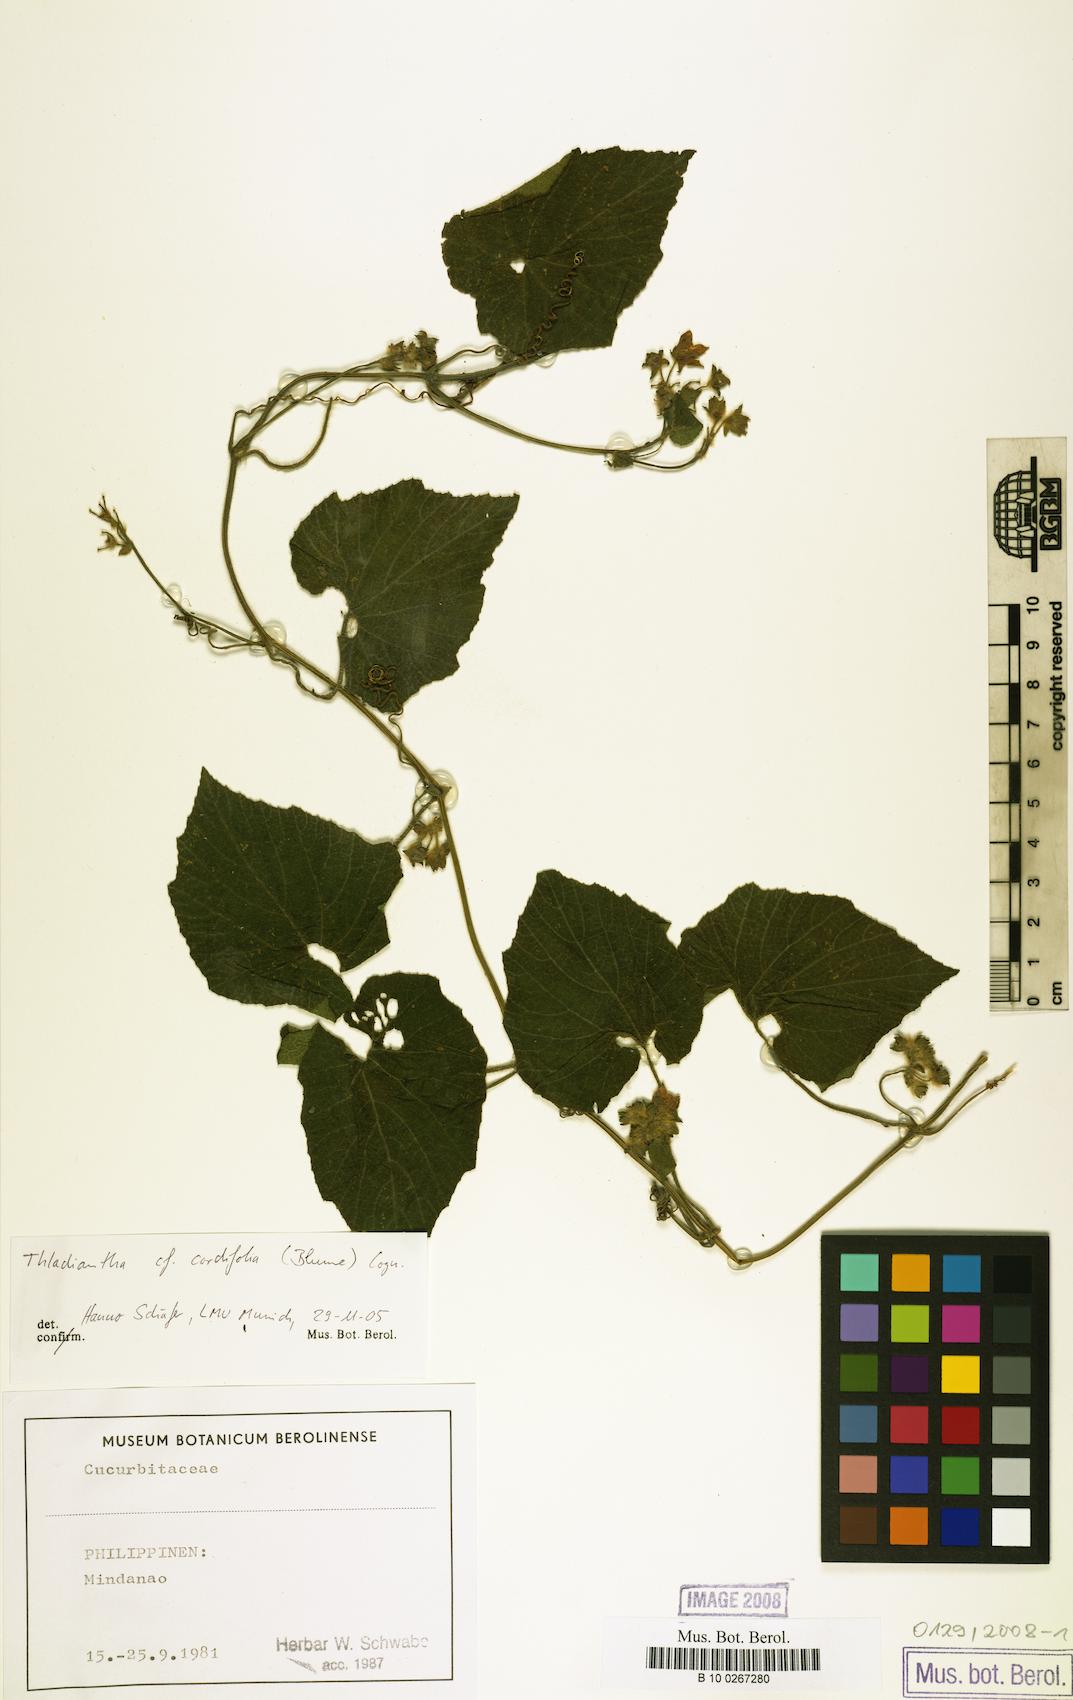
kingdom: Plantae
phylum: Tracheophyta
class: Magnoliopsida
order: Cucurbitales
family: Cucurbitaceae
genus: Thladiantha
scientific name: Thladiantha cordifolia
